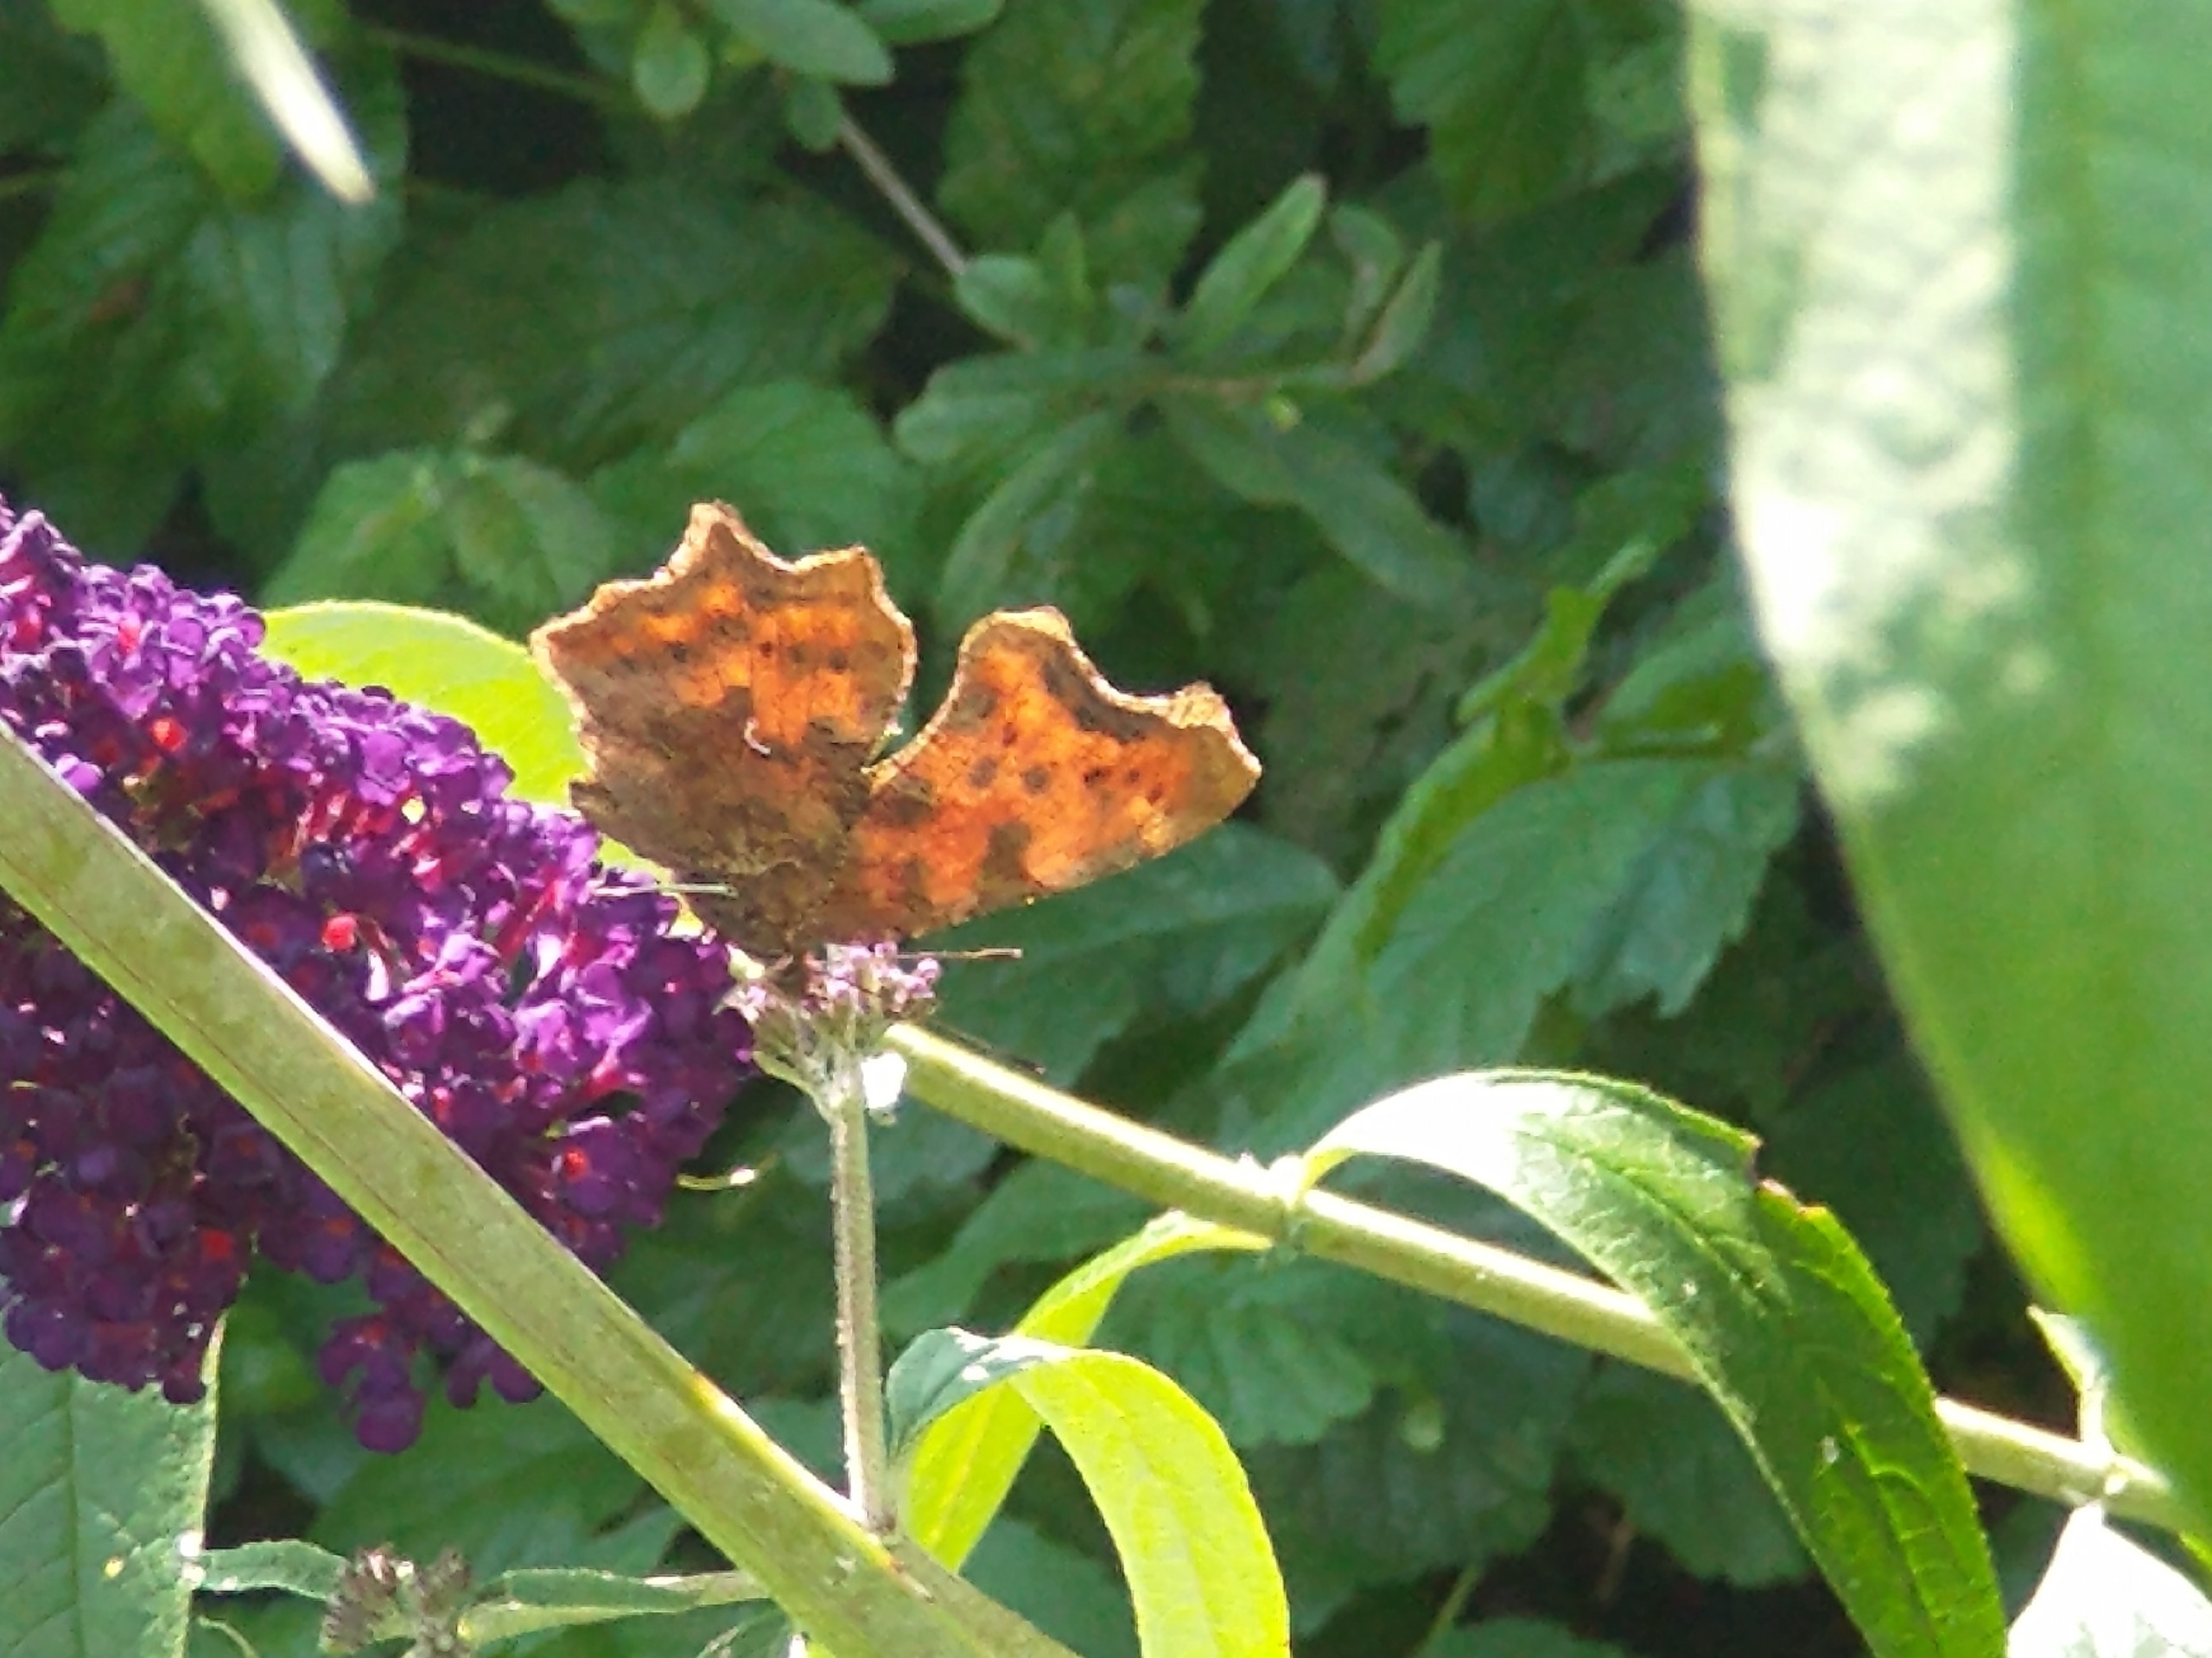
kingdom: Animalia
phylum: Arthropoda
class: Insecta
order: Lepidoptera
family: Nymphalidae
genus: Polygonia
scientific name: Polygonia c-album
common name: Det hvide C
